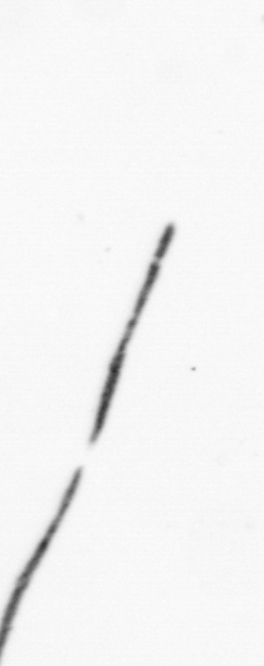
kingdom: Bacteria
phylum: Cyanobacteria
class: Cyanobacteriia
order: Cyanobacteriales
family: Microcoleaceae
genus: Trichodesmium
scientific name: Trichodesmium
